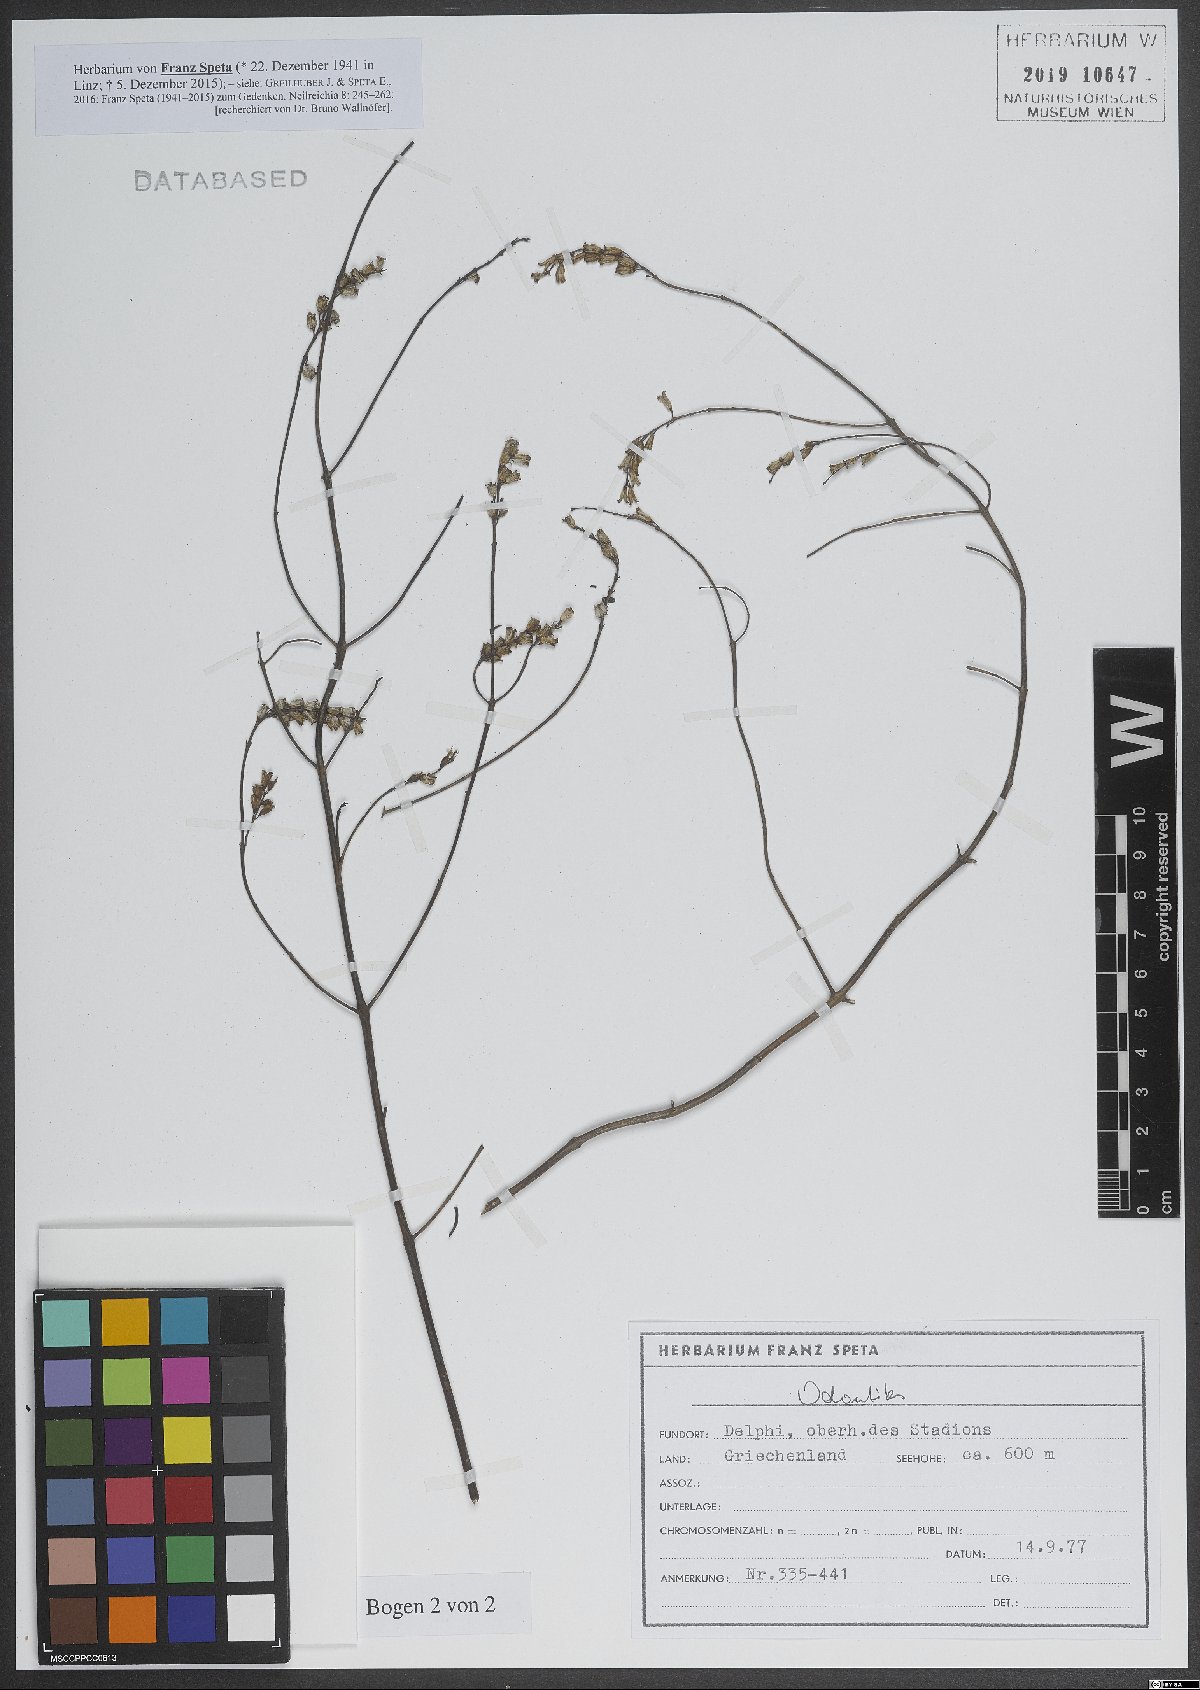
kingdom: Plantae
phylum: Tracheophyta
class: Magnoliopsida
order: Lamiales
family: Orobanchaceae
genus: Odontites
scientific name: Odontites
